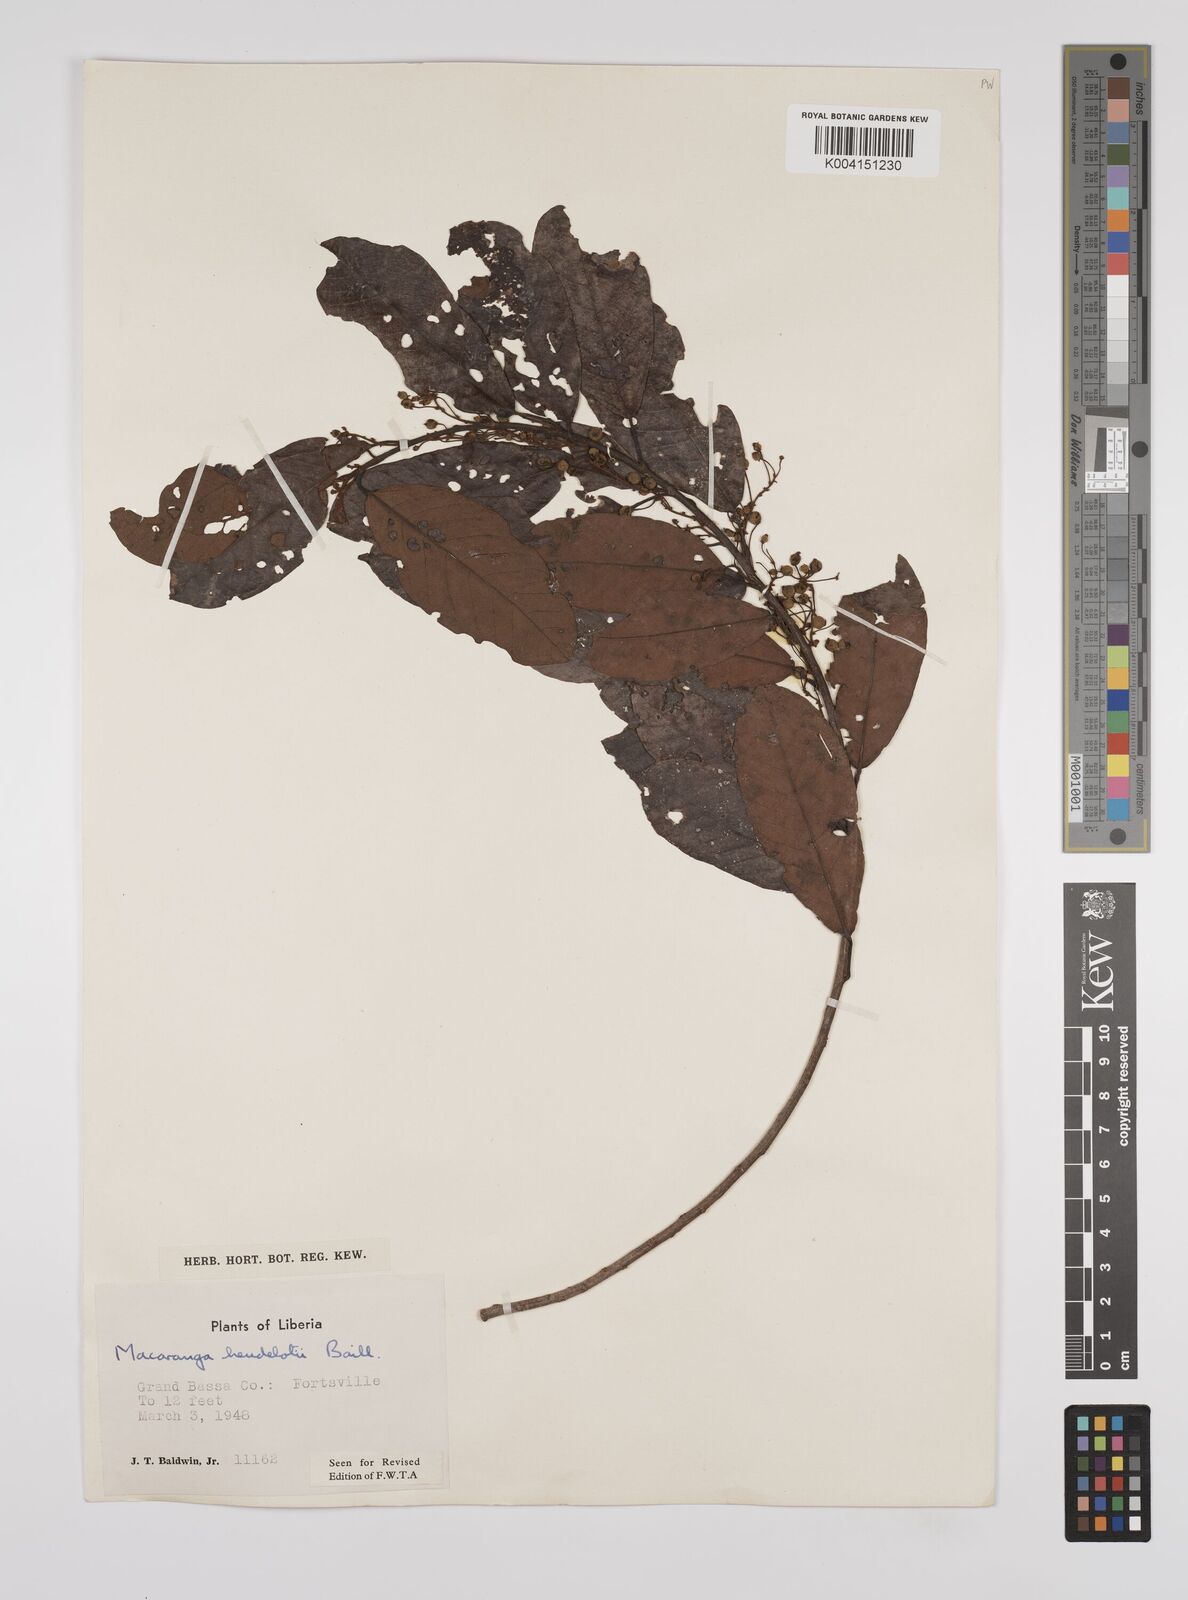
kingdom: Plantae
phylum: Tracheophyta
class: Magnoliopsida
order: Malpighiales
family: Euphorbiaceae
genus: Macaranga
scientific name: Macaranga heudelotii
